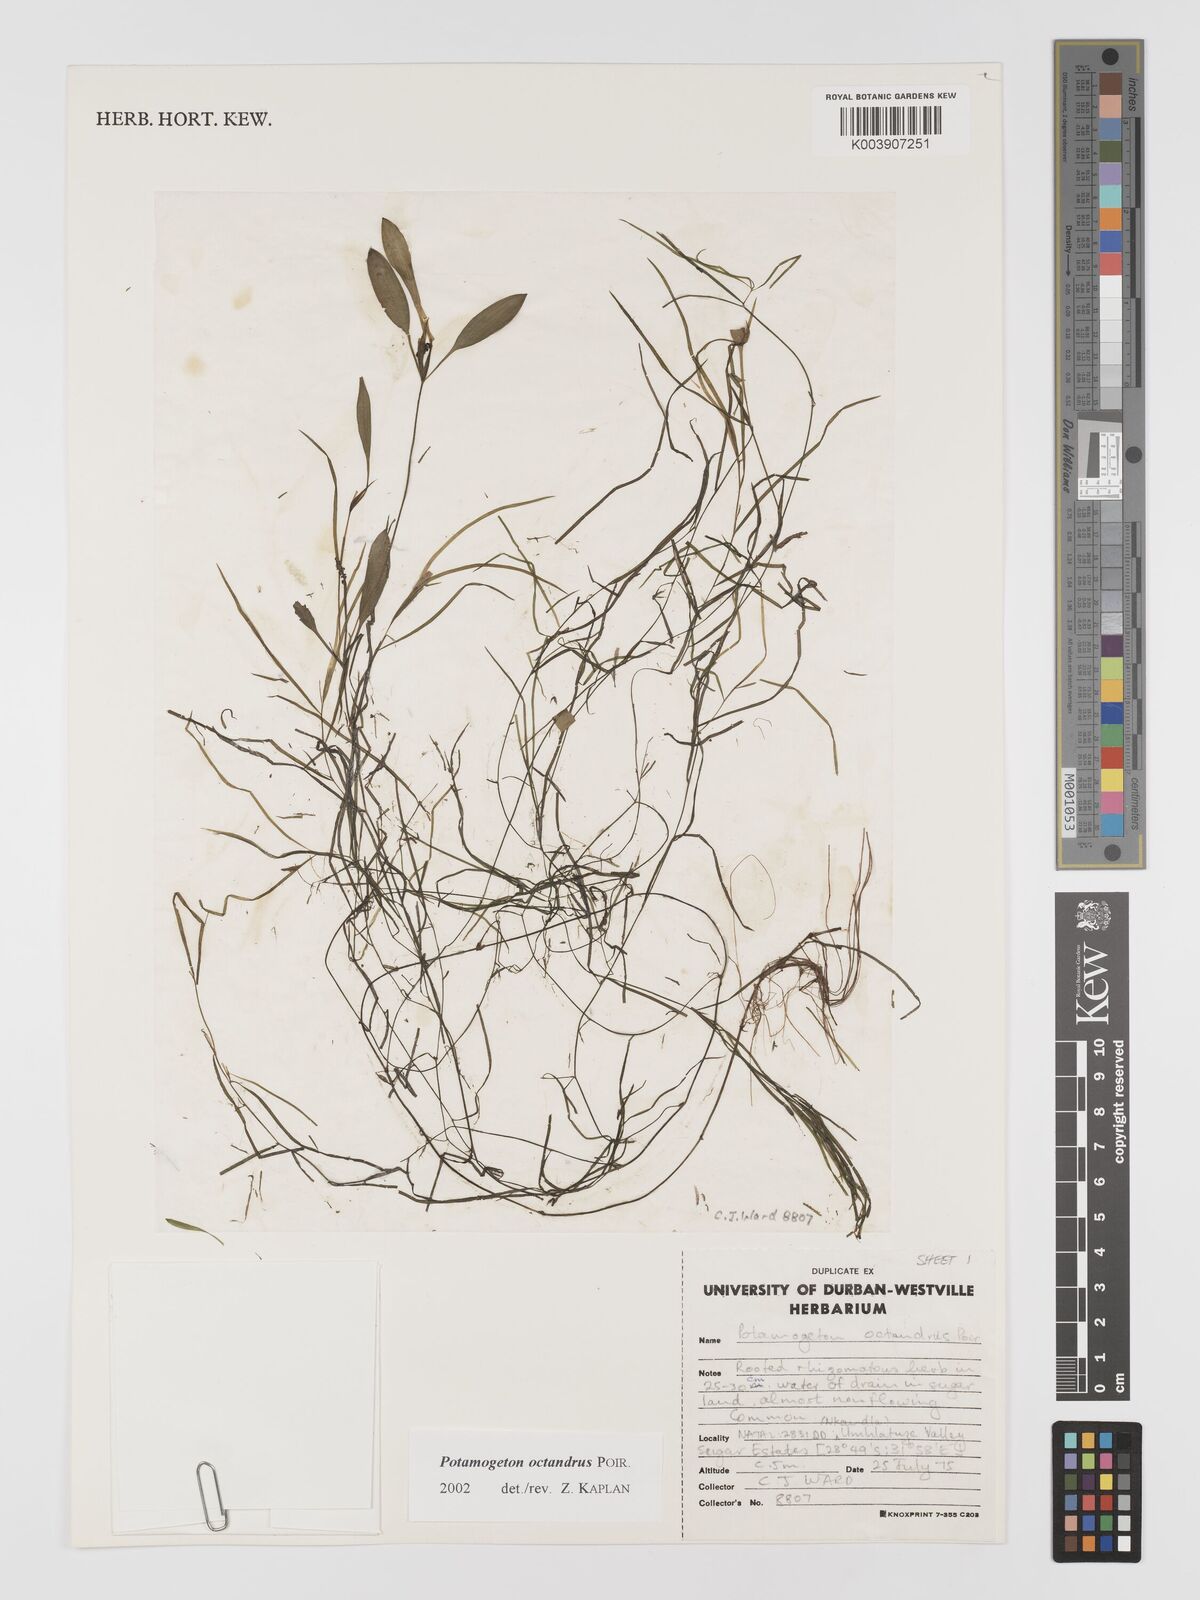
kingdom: Plantae
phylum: Tracheophyta
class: Liliopsida
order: Alismatales
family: Potamogetonaceae
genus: Potamogeton
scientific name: Potamogeton octandrus
